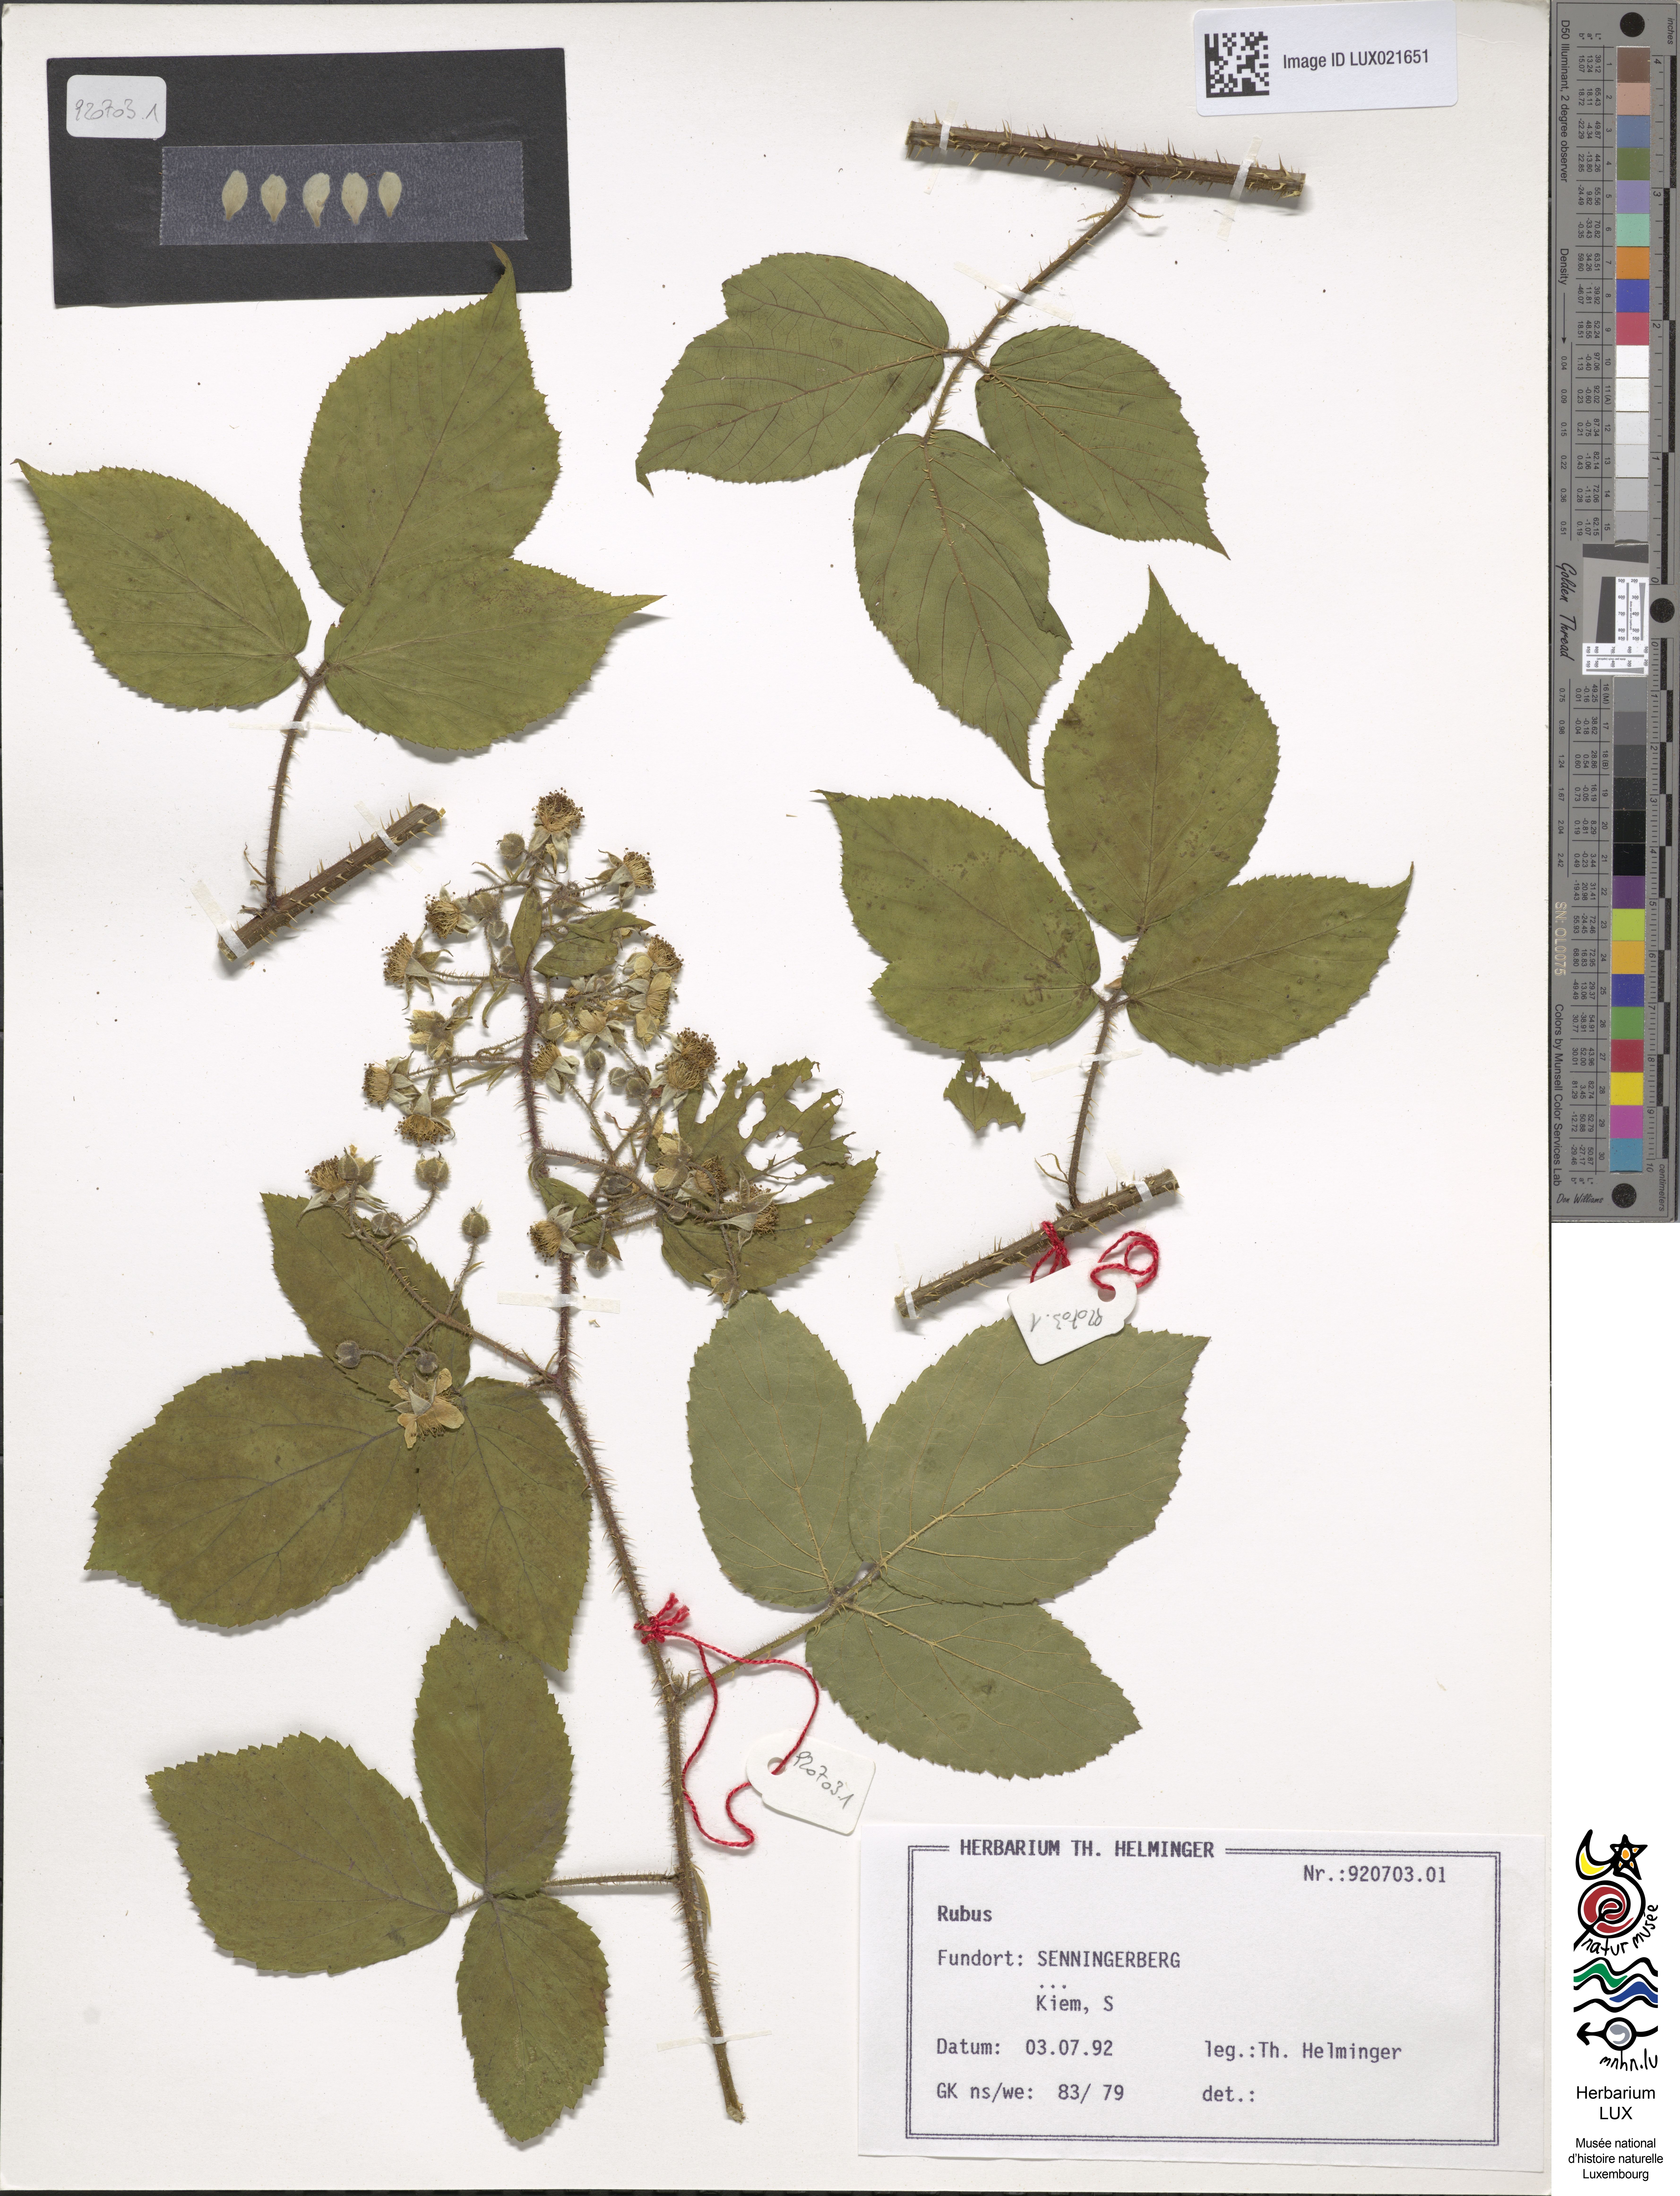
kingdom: Plantae
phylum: Tracheophyta
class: Magnoliopsida
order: Rosales
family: Rosaceae
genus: Rubus
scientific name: Rubus
